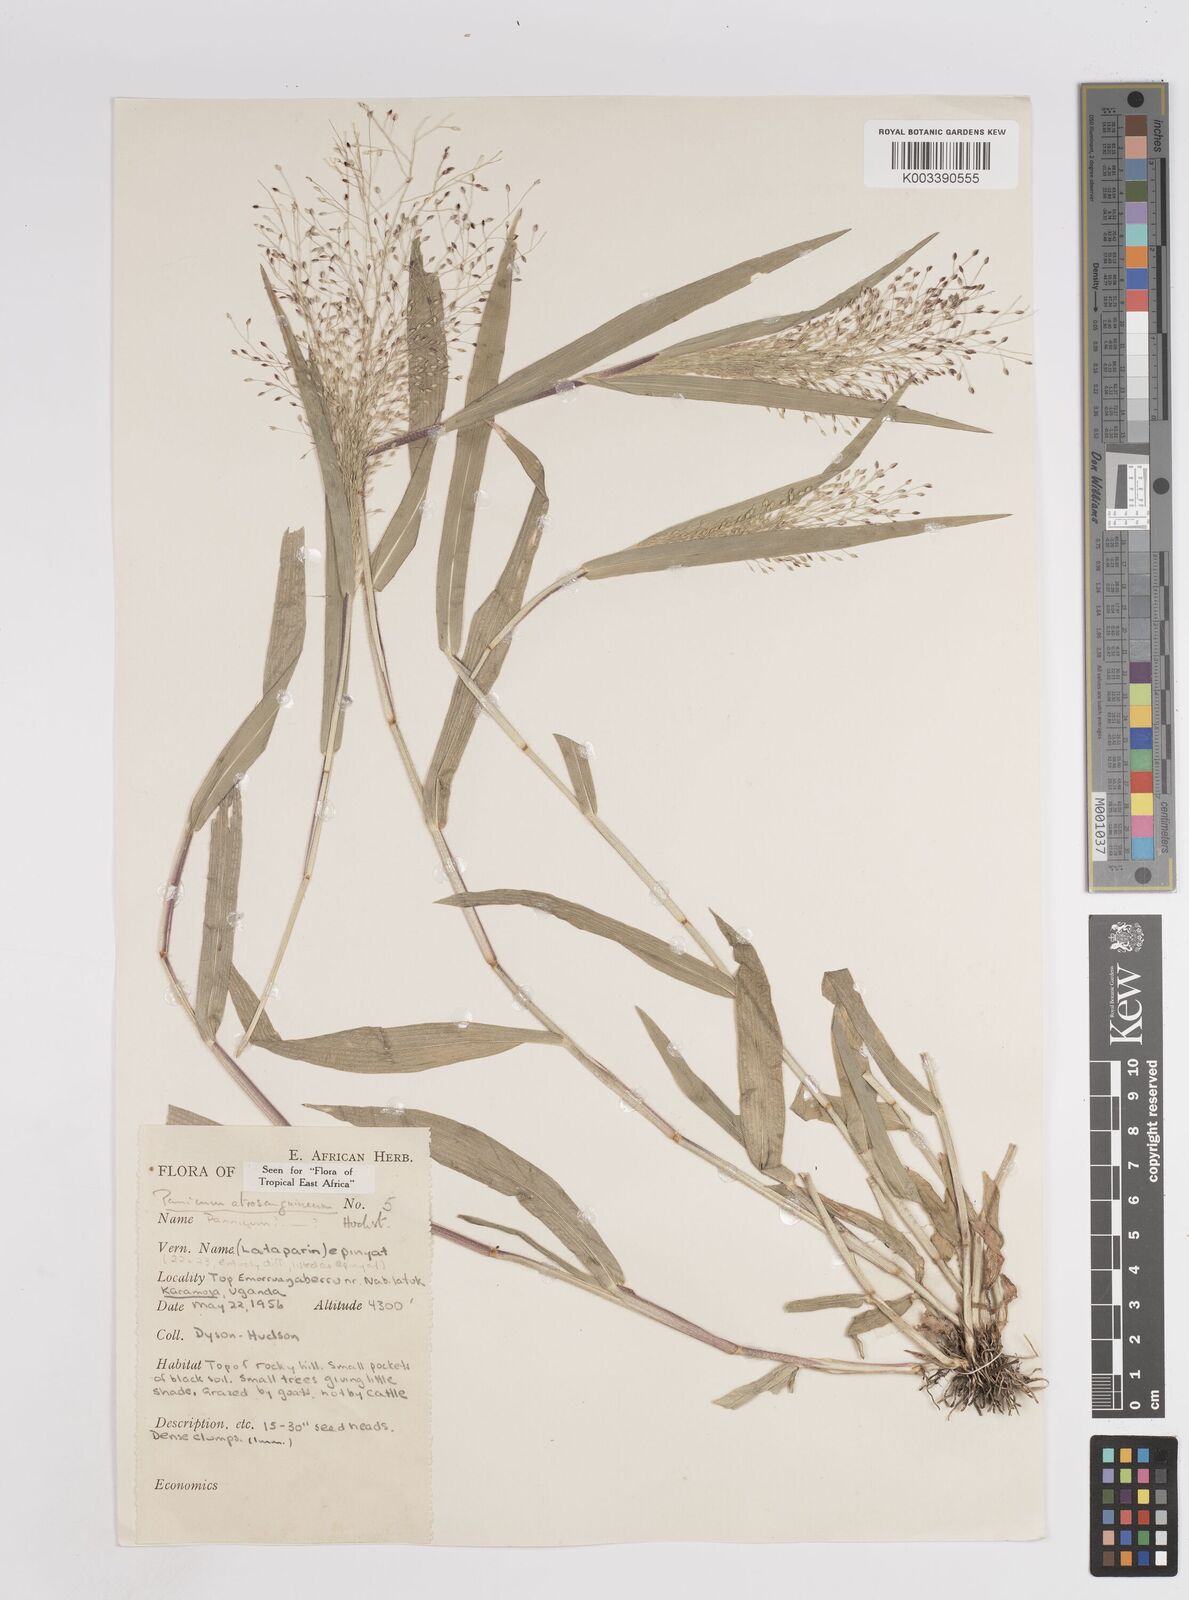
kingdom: Plantae
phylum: Tracheophyta
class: Liliopsida
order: Poales
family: Poaceae
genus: Panicum
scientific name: Panicum atrosanguineum
